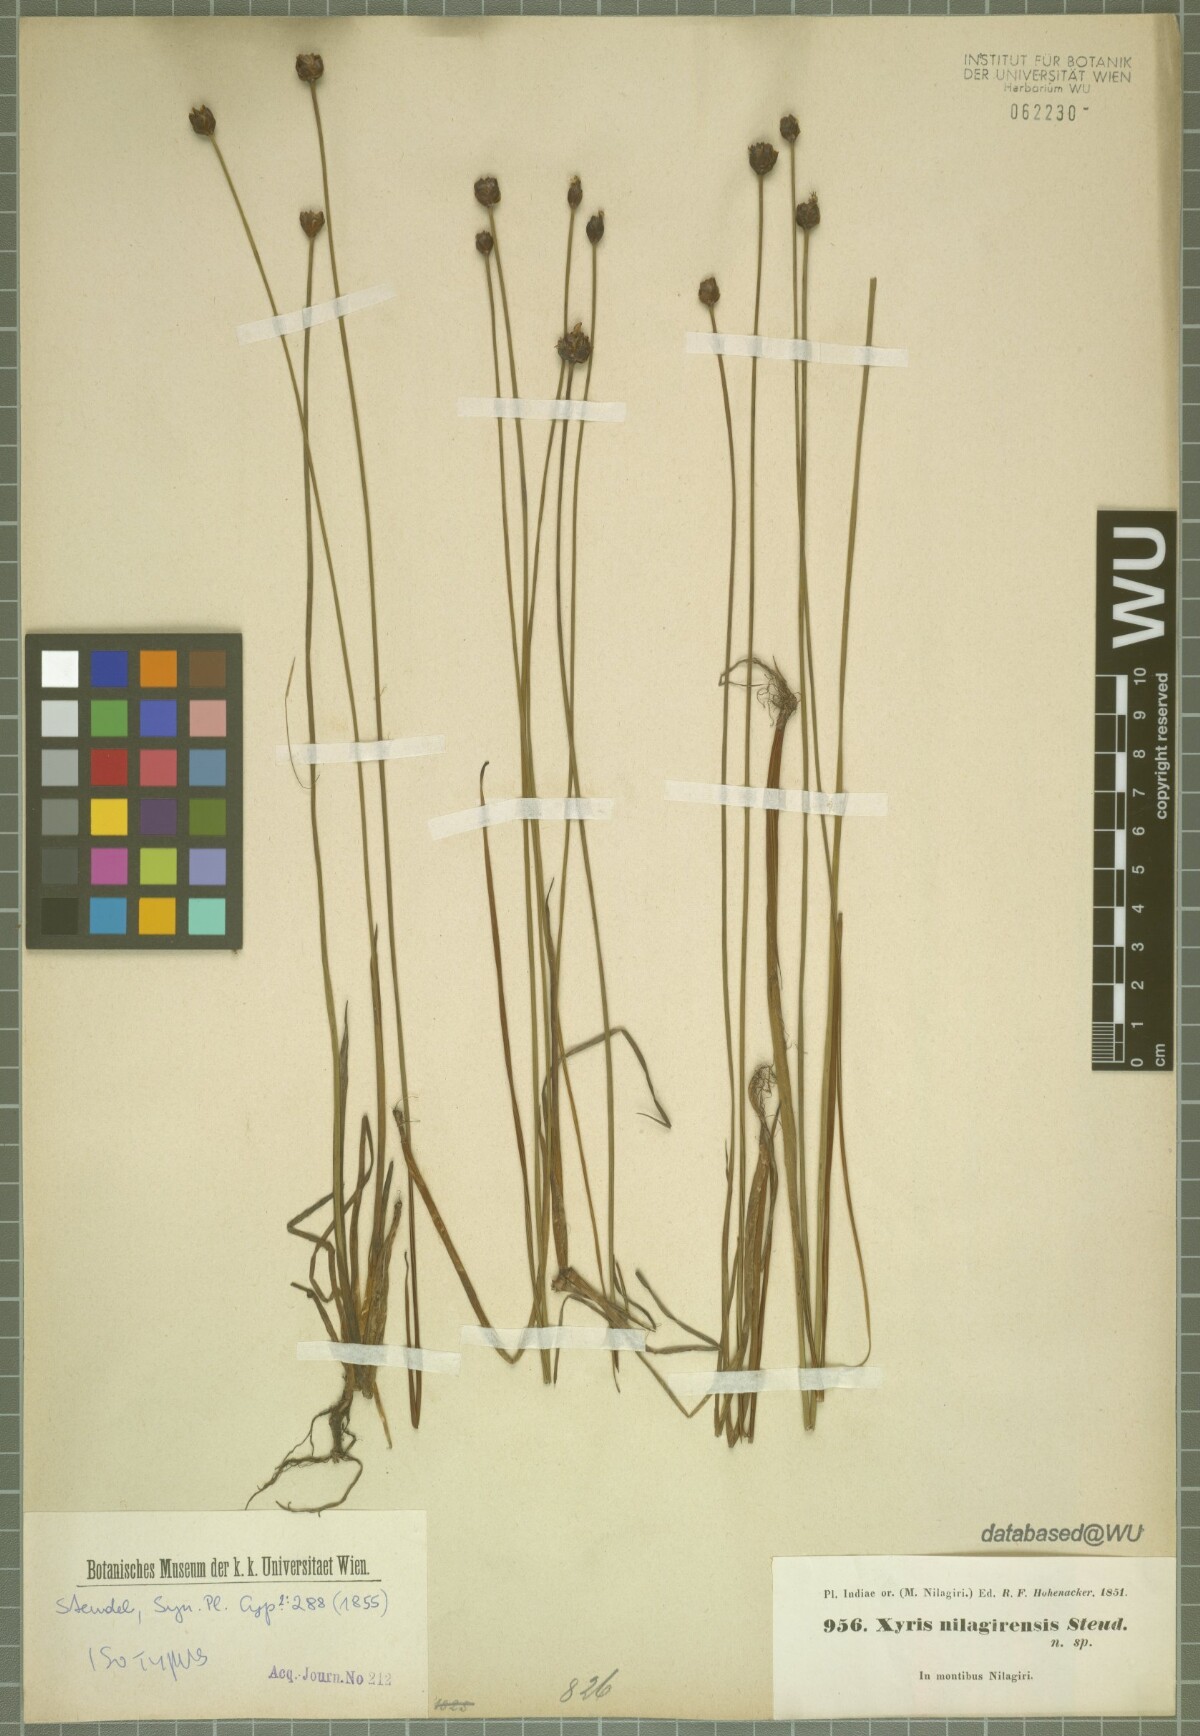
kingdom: Plantae
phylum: Tracheophyta
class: Liliopsida
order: Poales
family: Xyridaceae
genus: Xyris
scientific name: Xyris capensis
